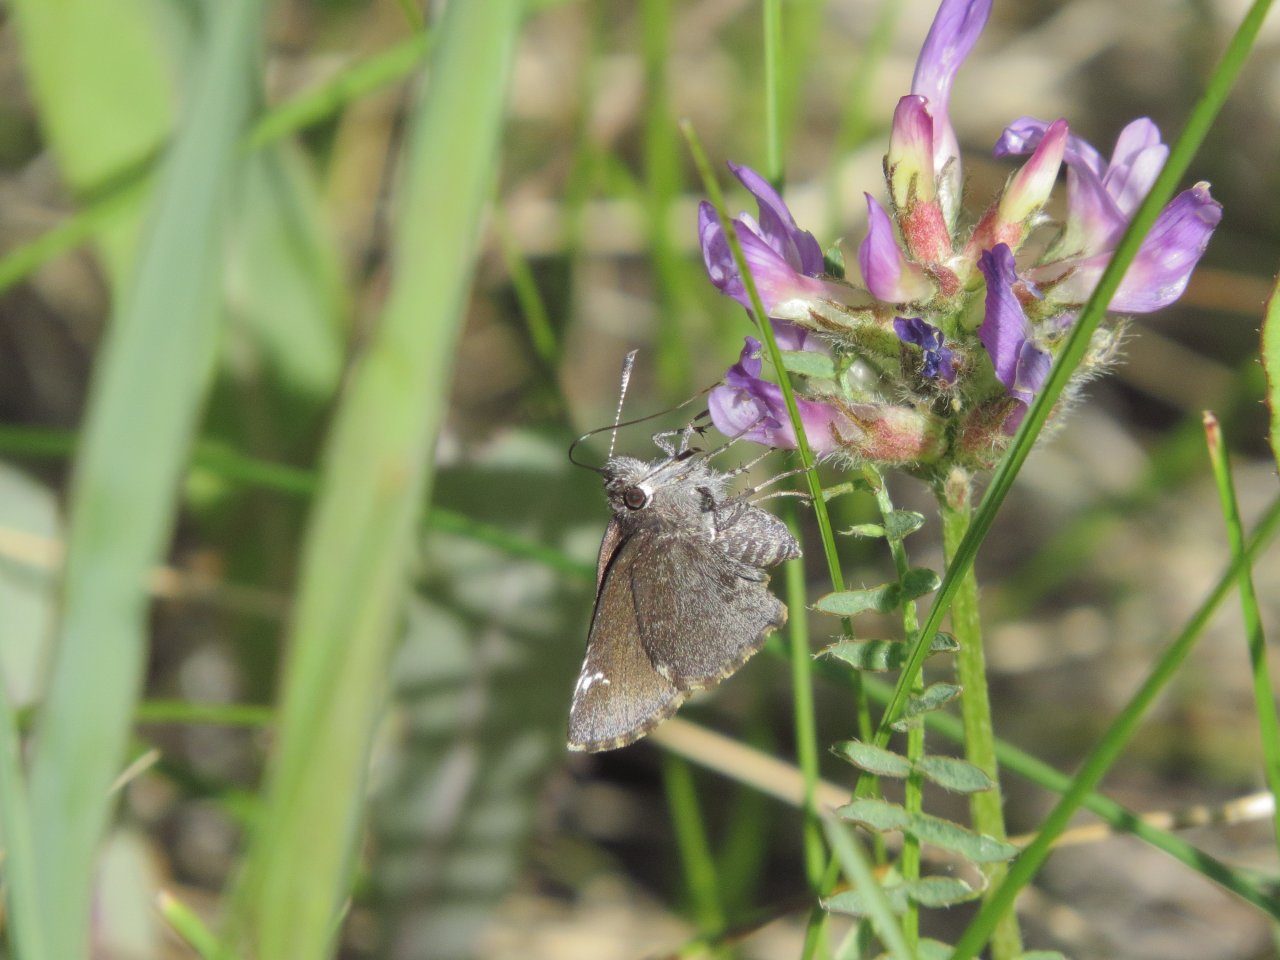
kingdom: Animalia
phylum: Arthropoda
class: Insecta
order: Lepidoptera
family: Hesperiidae
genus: Mastor
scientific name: Mastor vialis
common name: Common Roadside-Skipper
